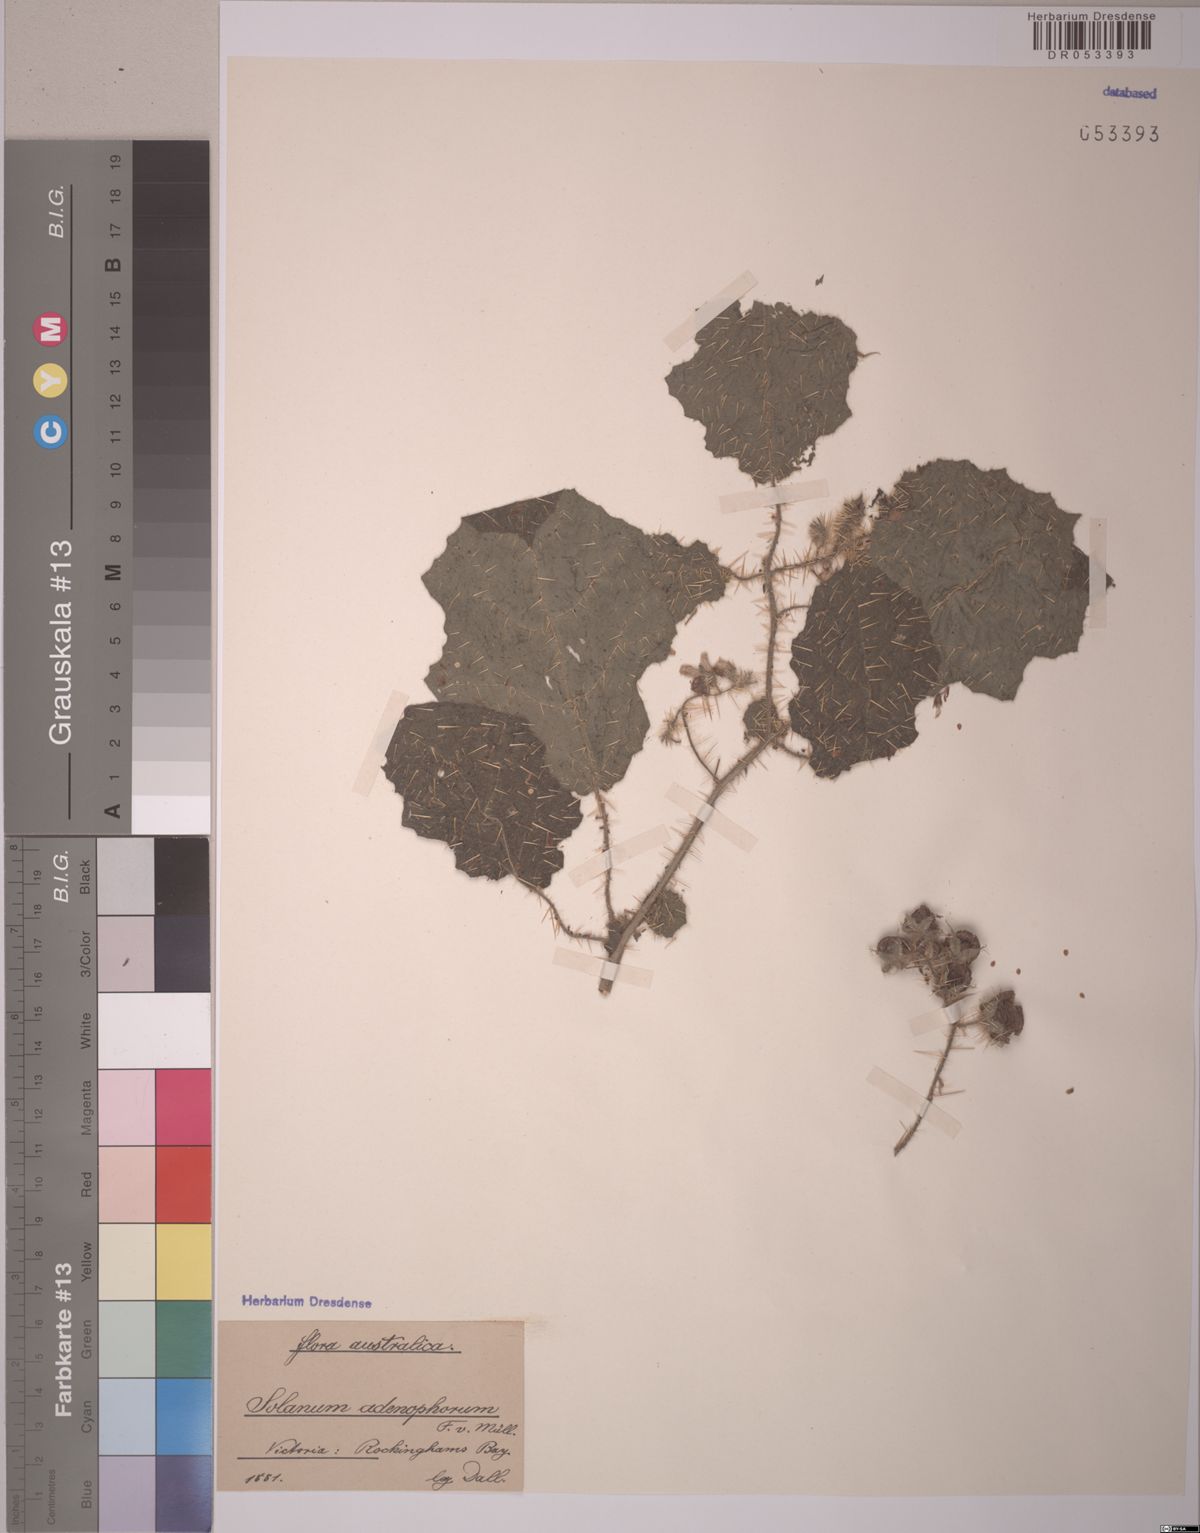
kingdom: Plantae
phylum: Tracheophyta
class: Magnoliopsida
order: Solanales
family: Solanaceae
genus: Solanum
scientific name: Solanum adenophorum
